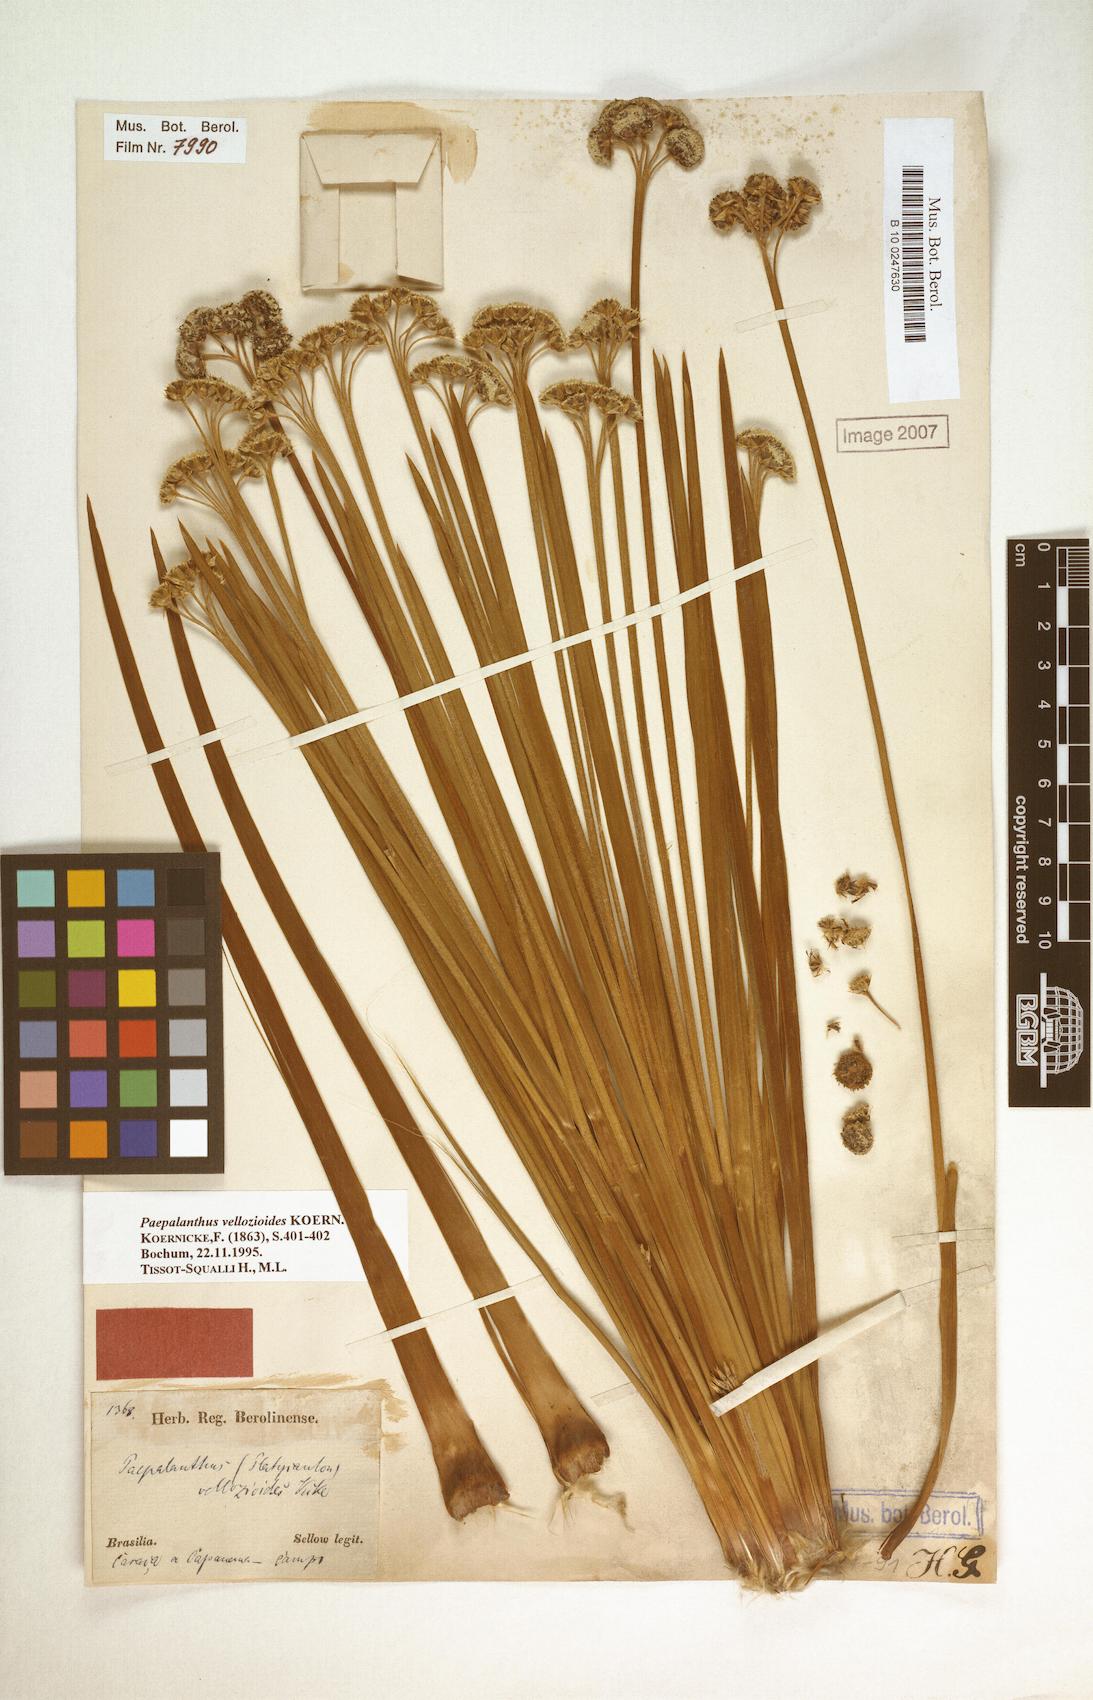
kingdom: Plantae
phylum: Tracheophyta
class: Liliopsida
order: Poales
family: Eriocaulaceae
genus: Paepalanthus
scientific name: Paepalanthus vellozioides
